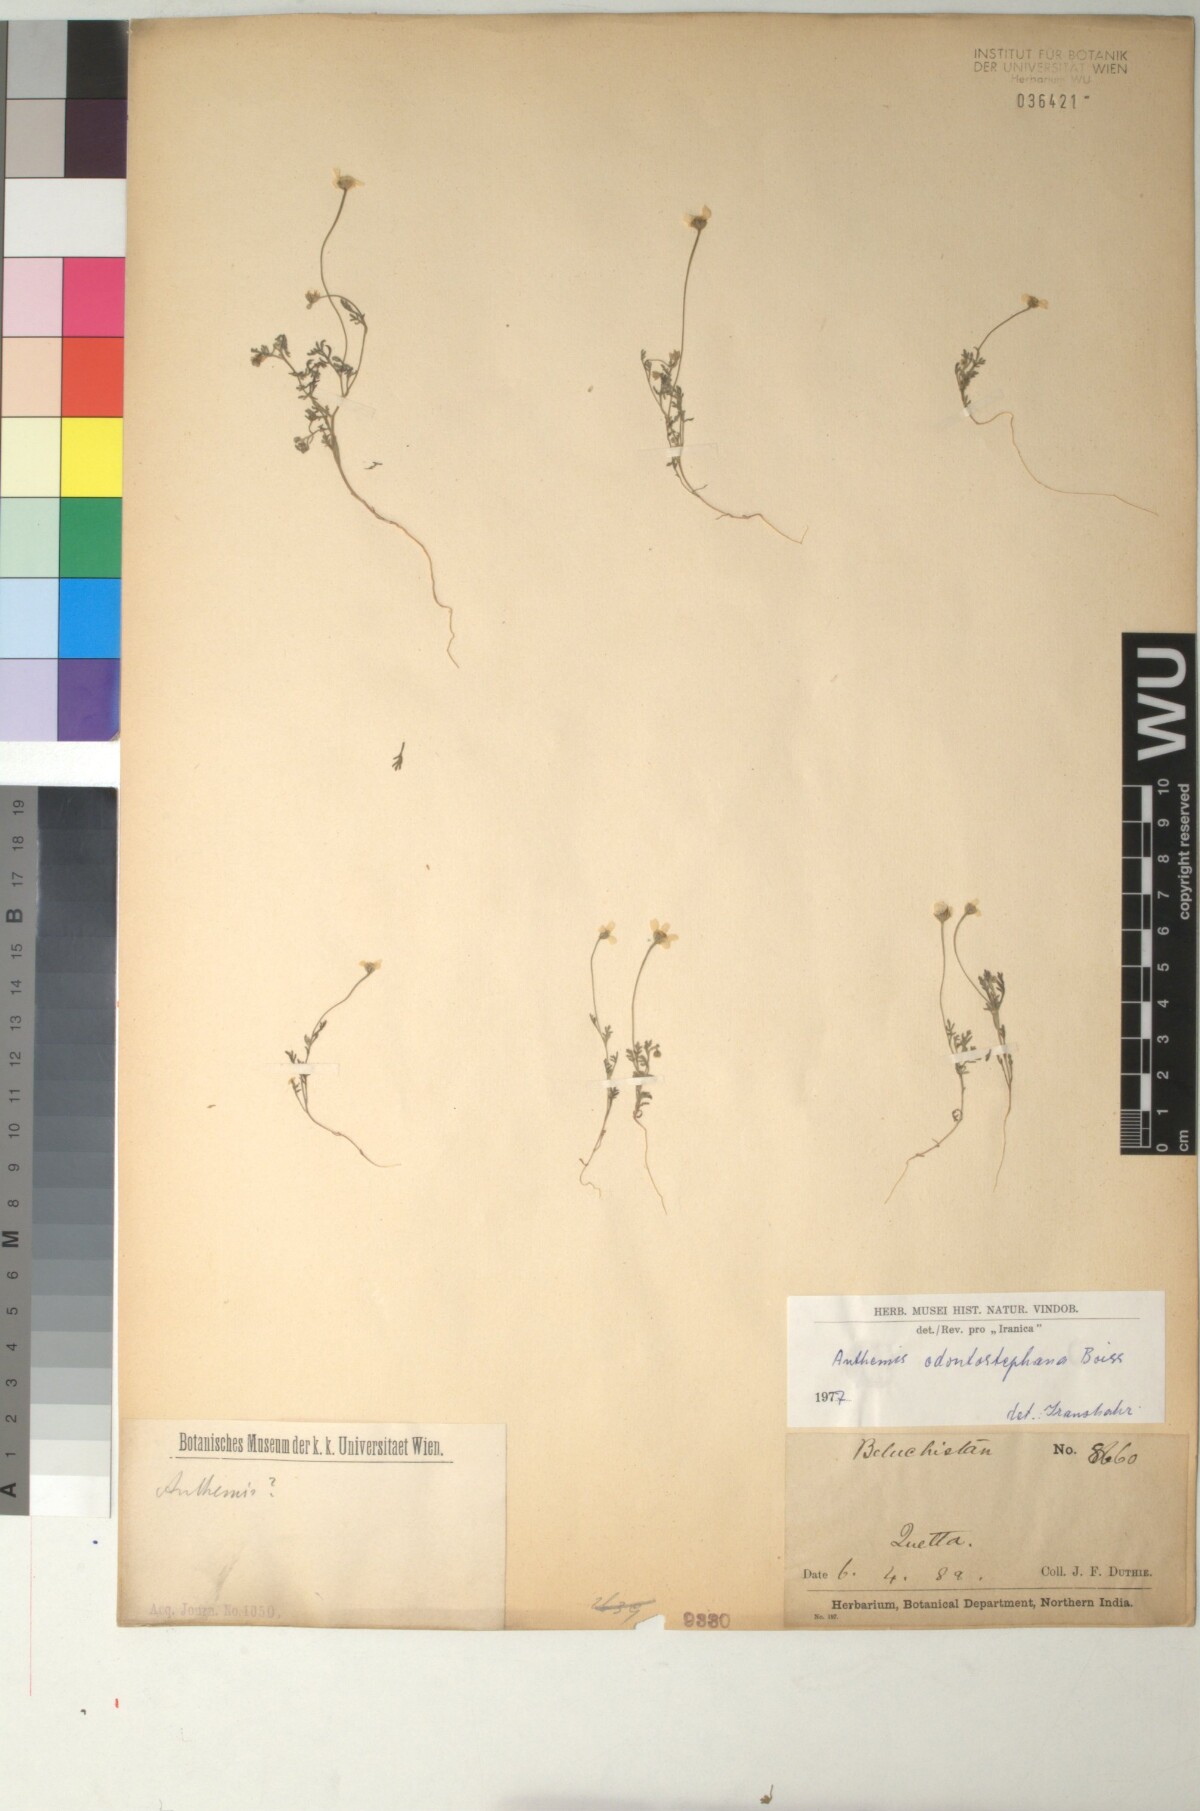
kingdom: Plantae
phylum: Tracheophyta
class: Magnoliopsida
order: Asterales
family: Asteraceae
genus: Anthemis
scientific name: Anthemis odontostephana
